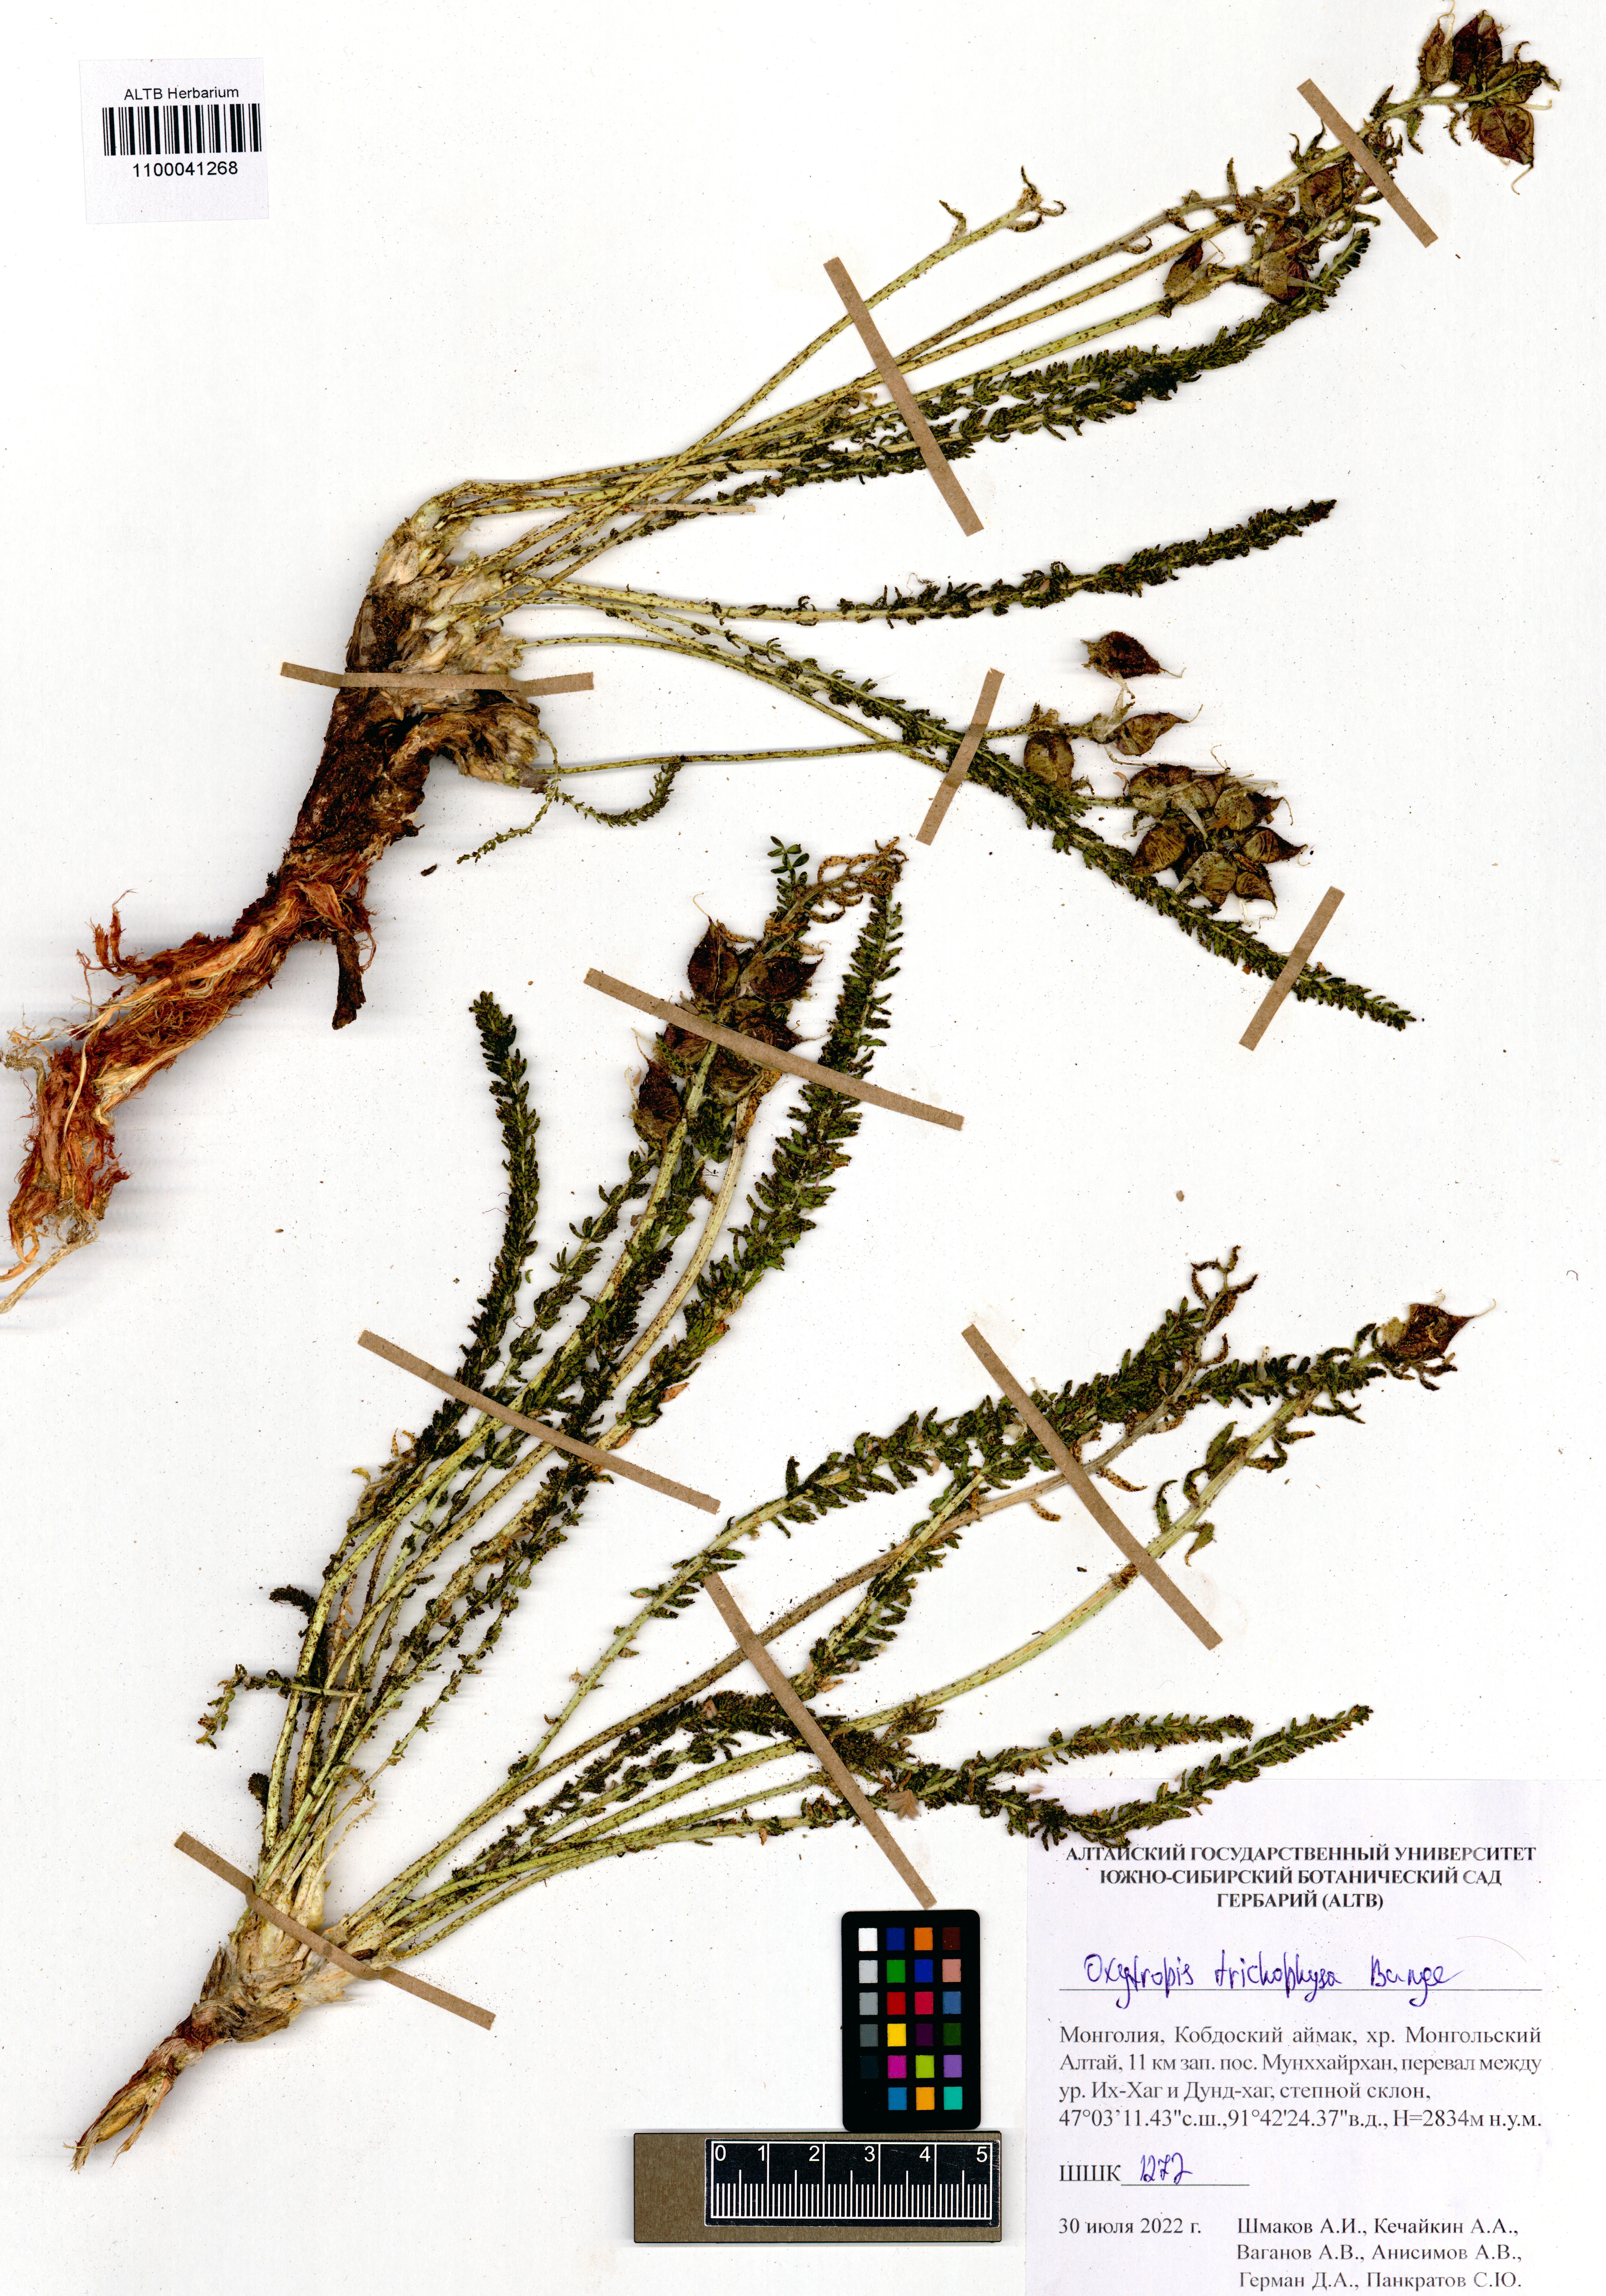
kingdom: Plantae
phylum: Tracheophyta
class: Magnoliopsida
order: Fabales
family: Fabaceae
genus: Oxytropis
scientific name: Oxytropis trichophysa
